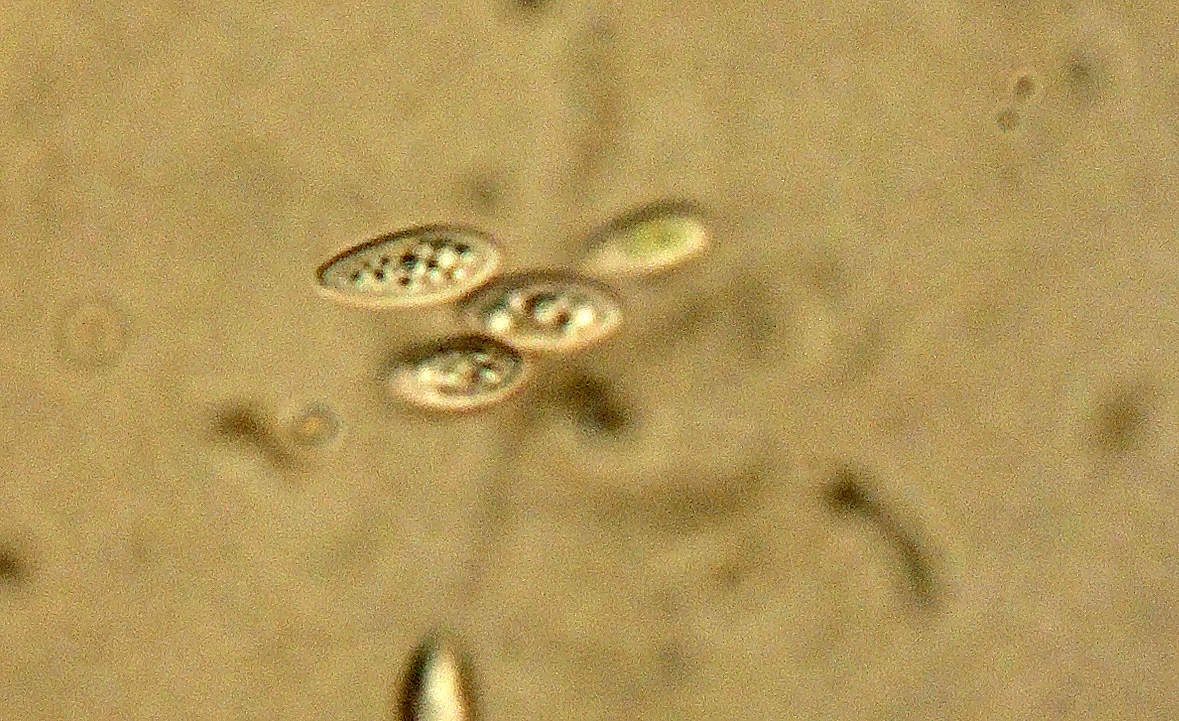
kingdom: Fungi
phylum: Ascomycota
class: Sordariomycetes
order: Diaporthales
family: Diaporthaceae
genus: Diaporthe
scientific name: Diaporthe stictica
